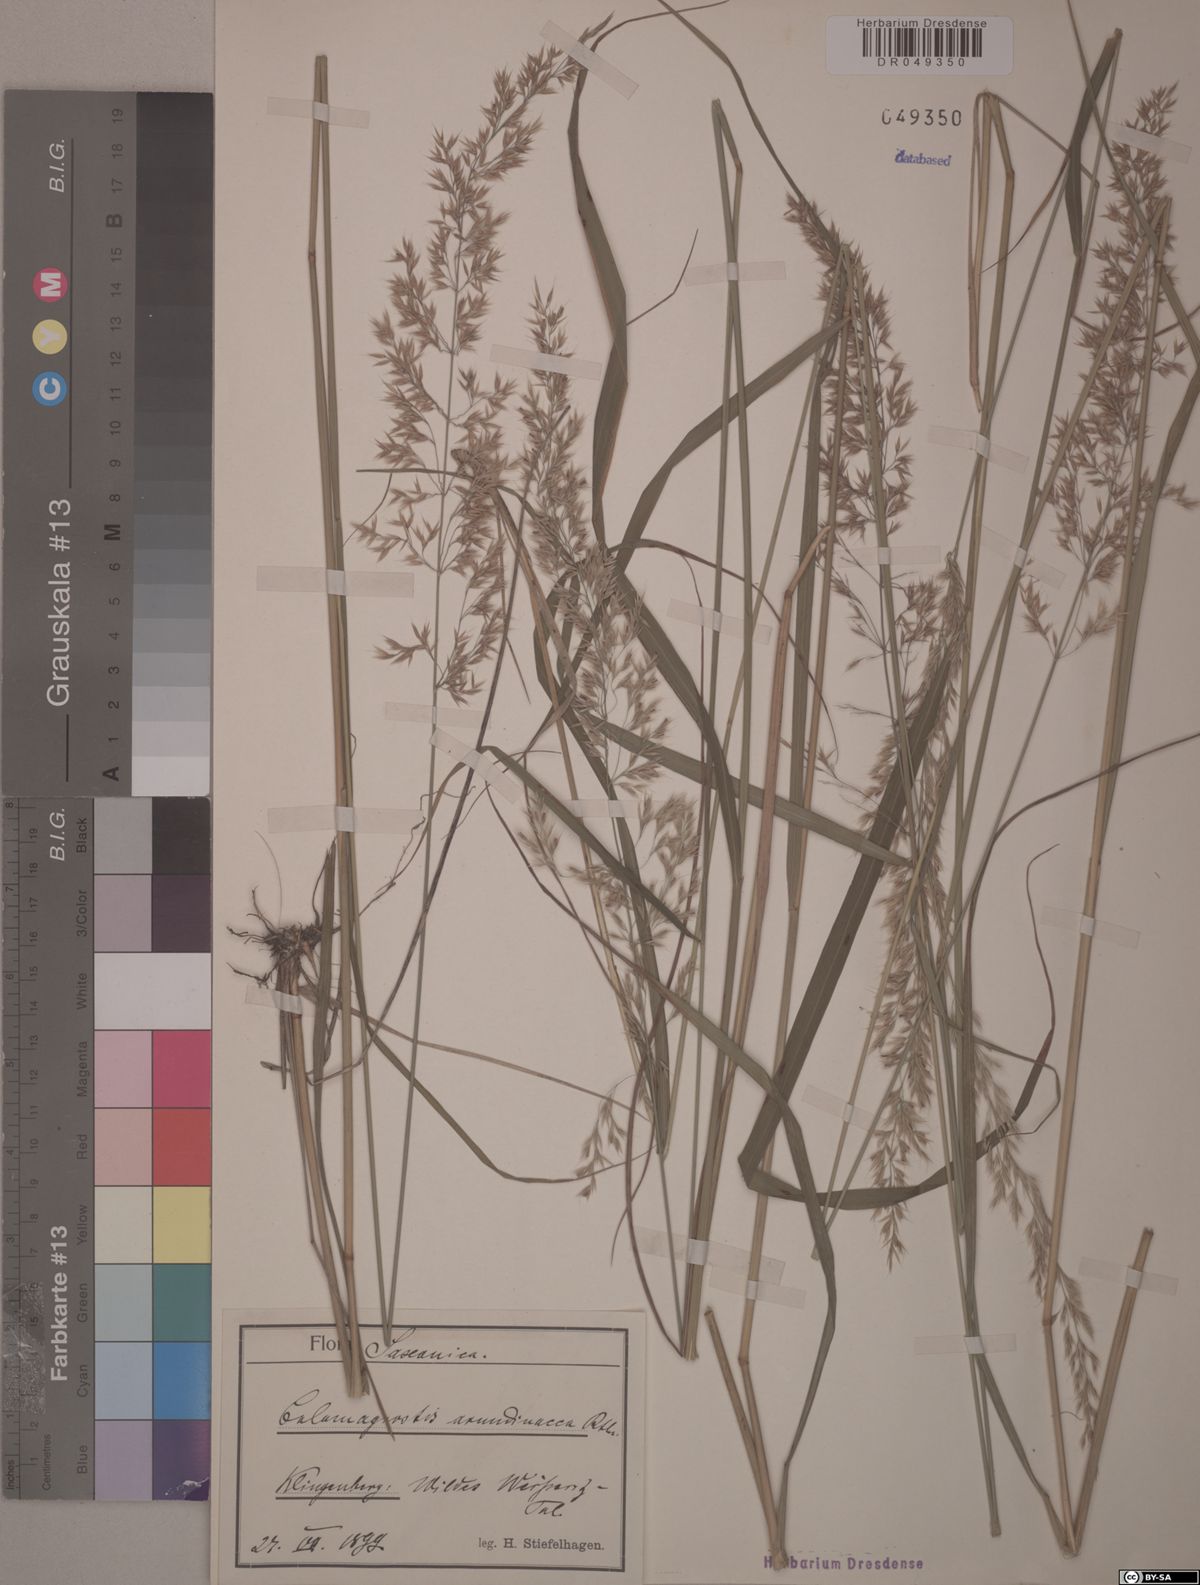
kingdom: Plantae
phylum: Tracheophyta
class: Liliopsida
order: Poales
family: Poaceae
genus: Calamagrostis
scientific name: Calamagrostis arundinacea
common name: Metskastik
